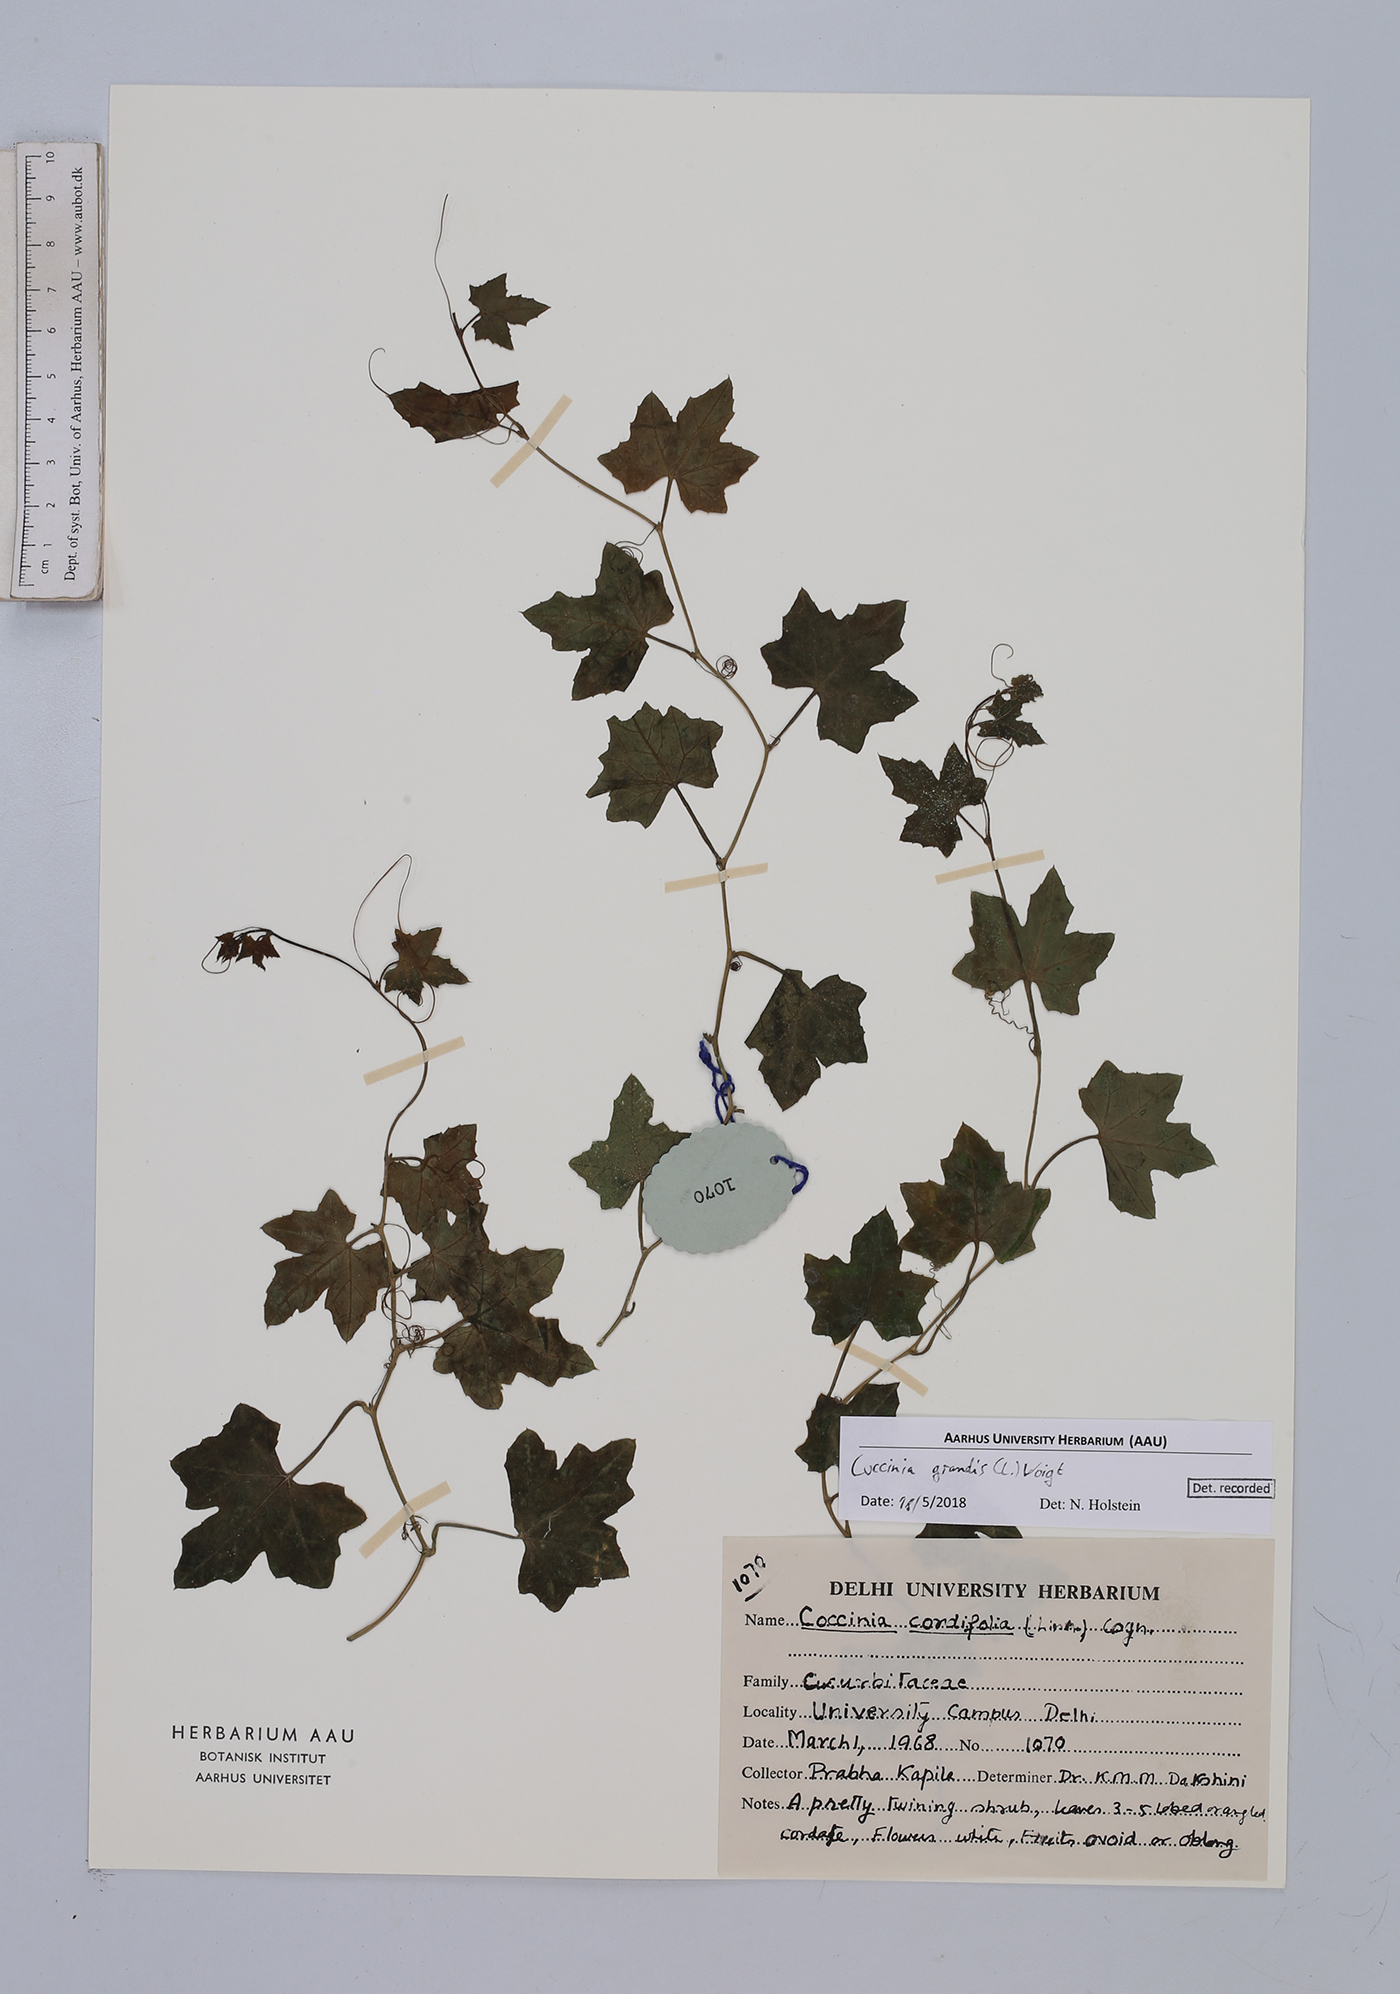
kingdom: Plantae
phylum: Tracheophyta
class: Magnoliopsida
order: Cucurbitales
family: Cucurbitaceae
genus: Coccinia
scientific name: Coccinia grandis
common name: Ivy gourd
